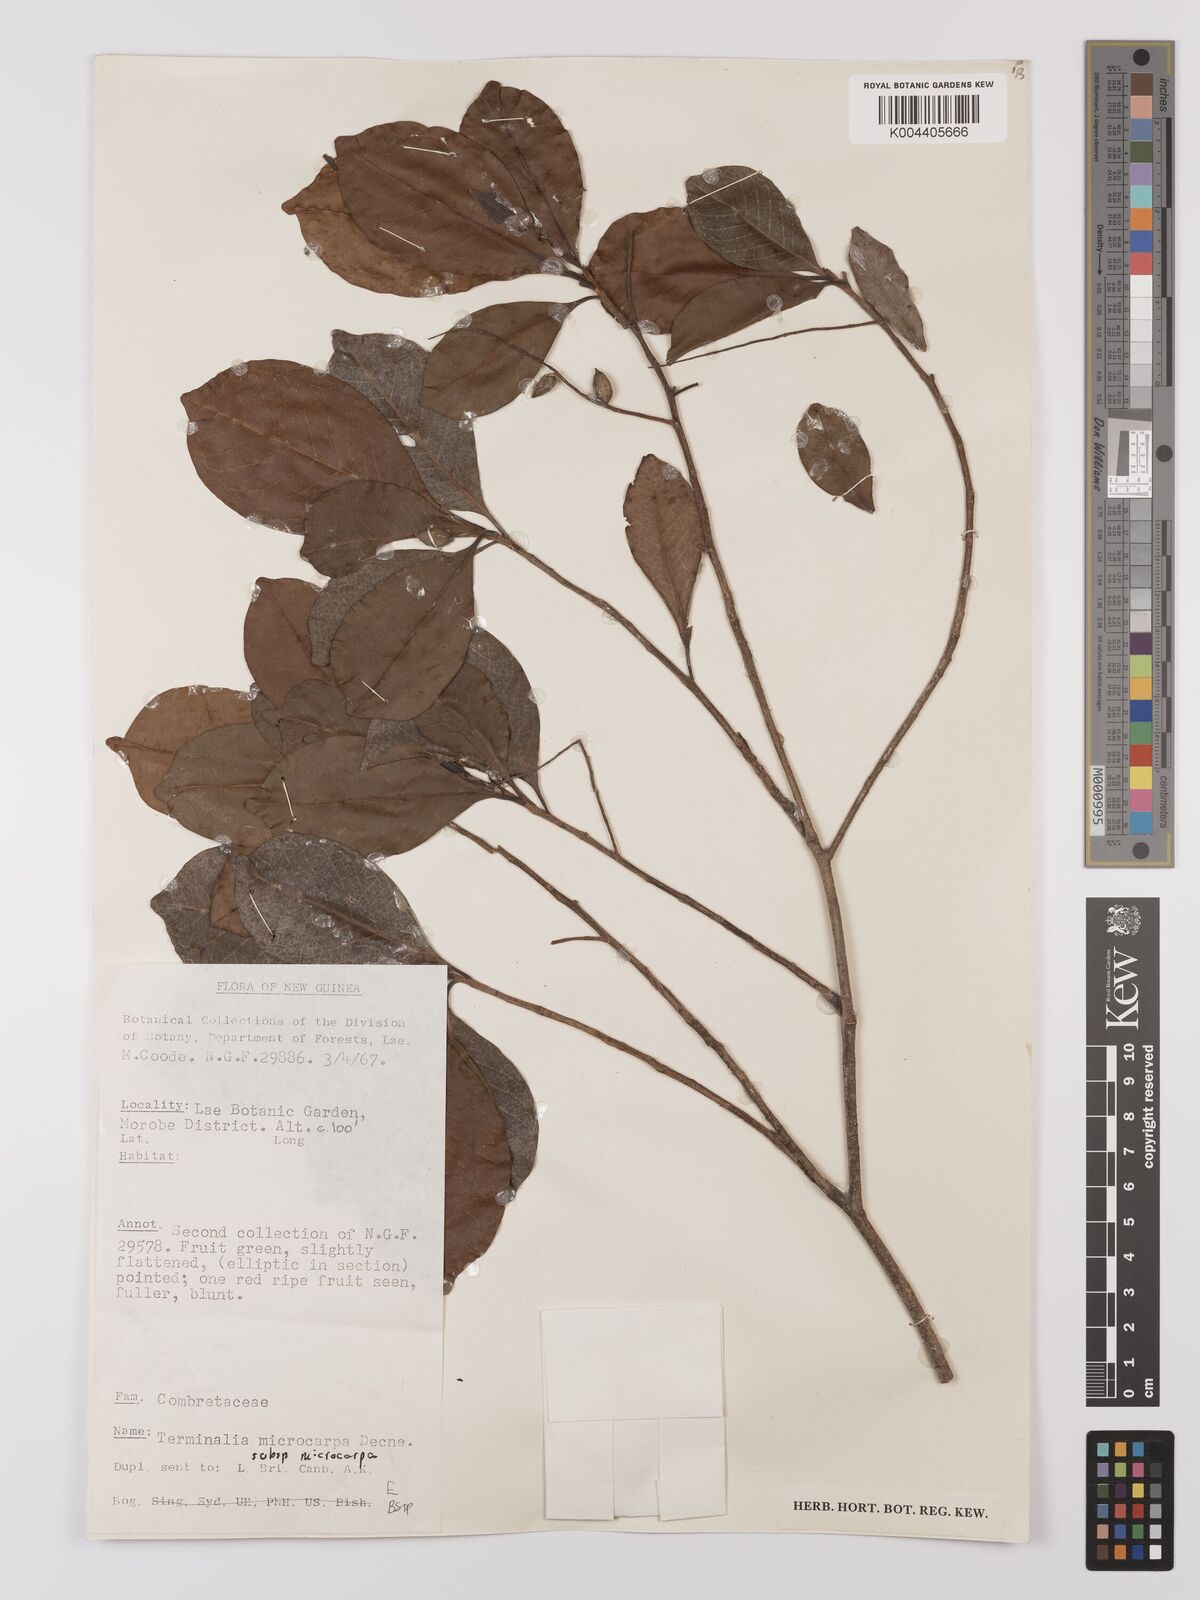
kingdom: Plantae
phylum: Tracheophyta
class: Magnoliopsida
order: Myrtales
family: Combretaceae
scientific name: Combretaceae
